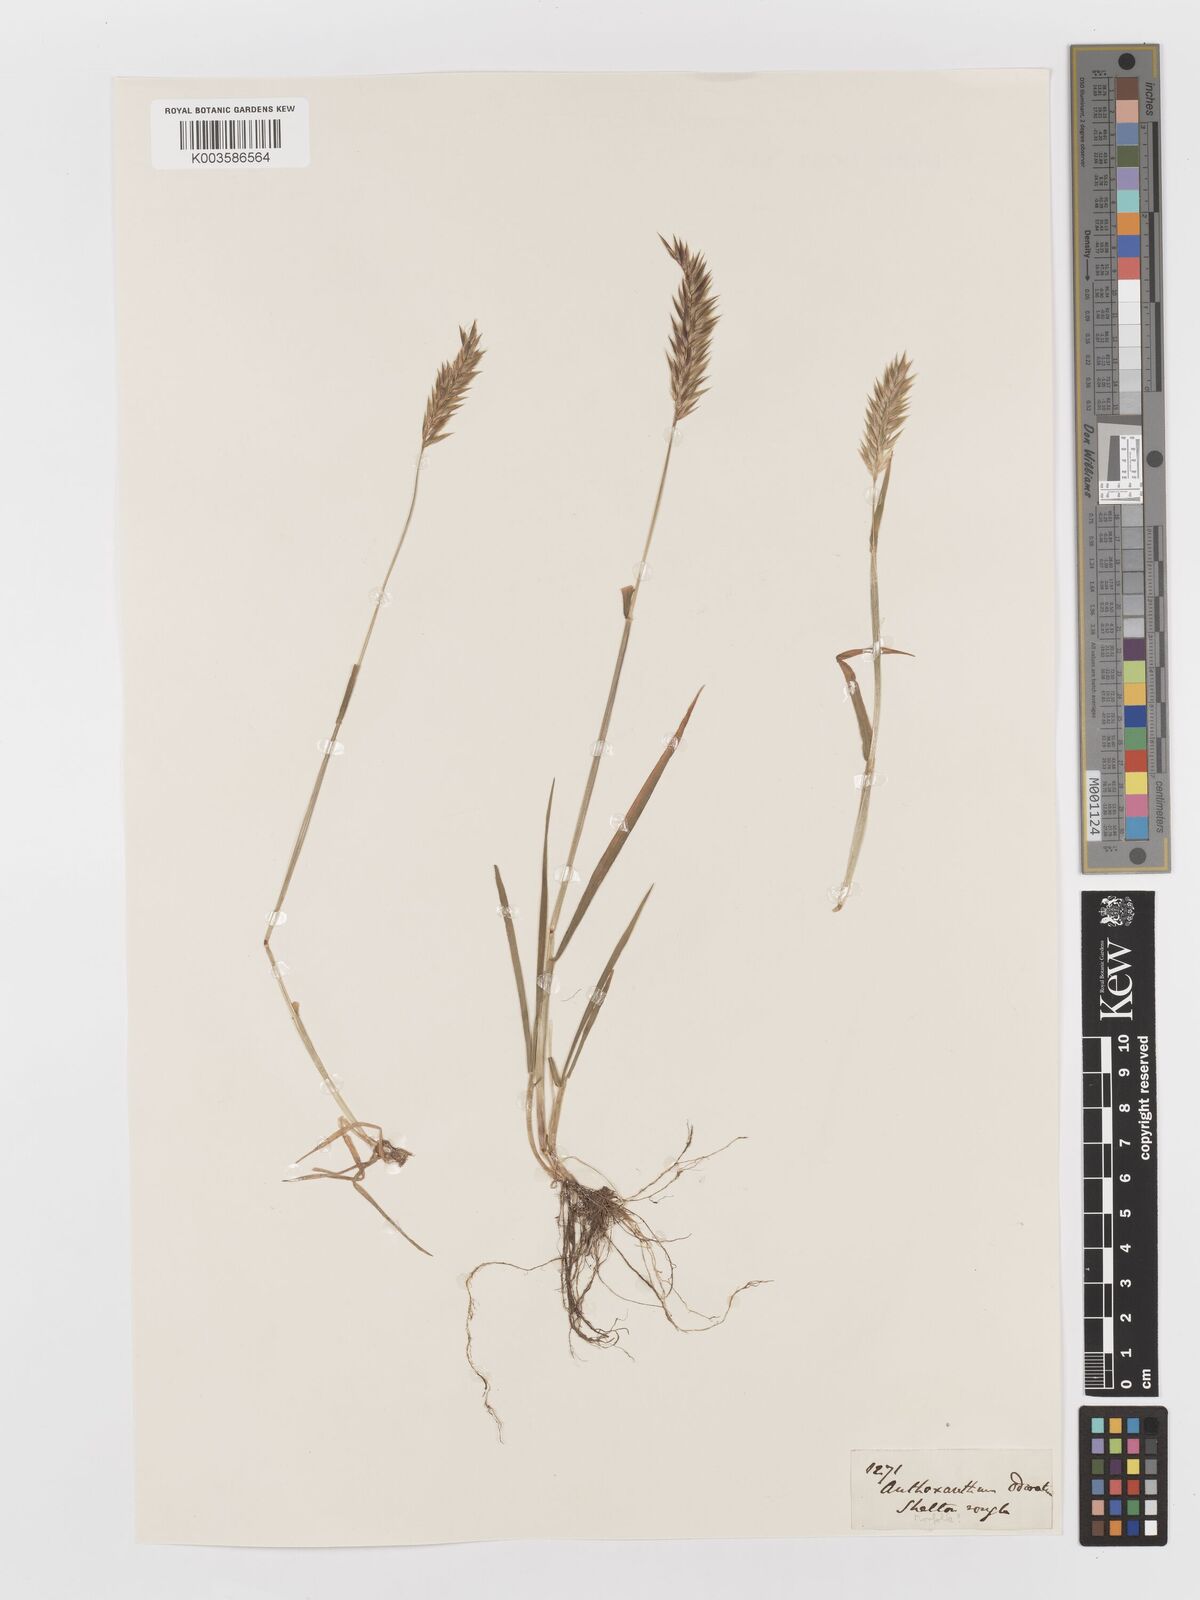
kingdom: Plantae
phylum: Tracheophyta
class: Liliopsida
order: Poales
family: Poaceae
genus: Anthoxanthum
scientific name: Anthoxanthum odoratum
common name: Sweet vernalgrass
